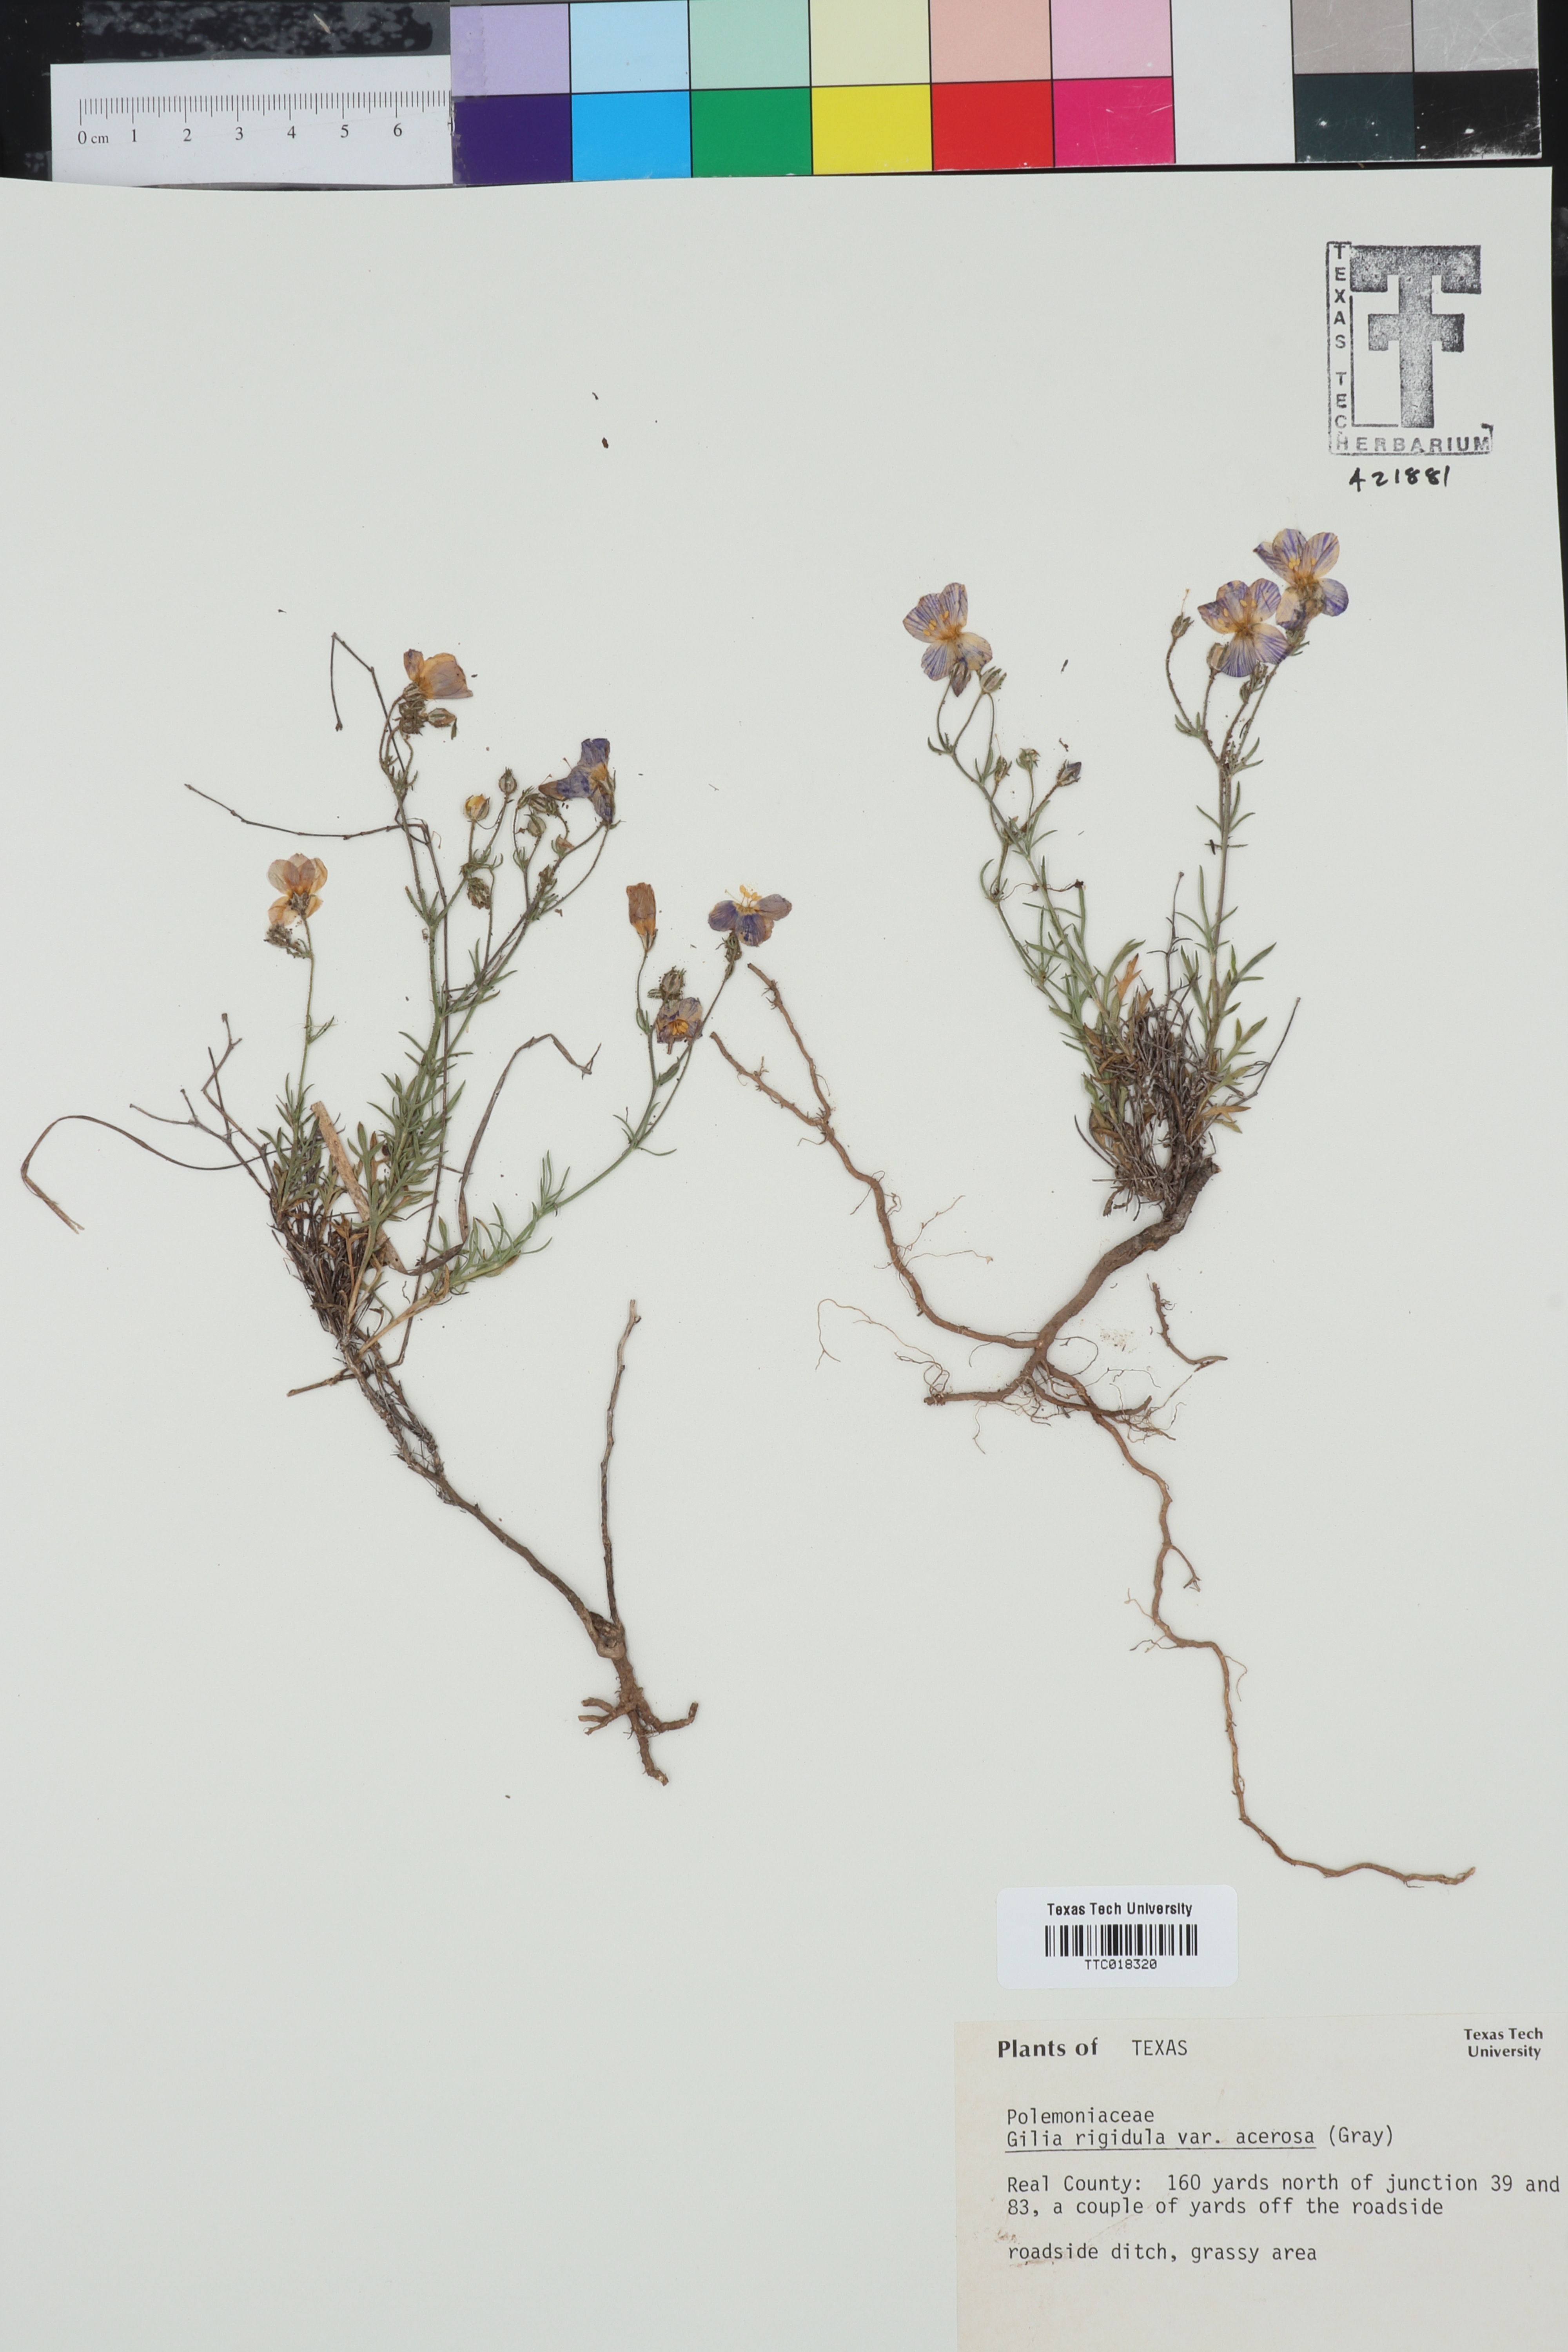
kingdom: Plantae
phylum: Tracheophyta
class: Magnoliopsida
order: Ericales
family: Polemoniaceae
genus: Giliastrum
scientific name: Giliastrum rigidulum
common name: Bluebowls
